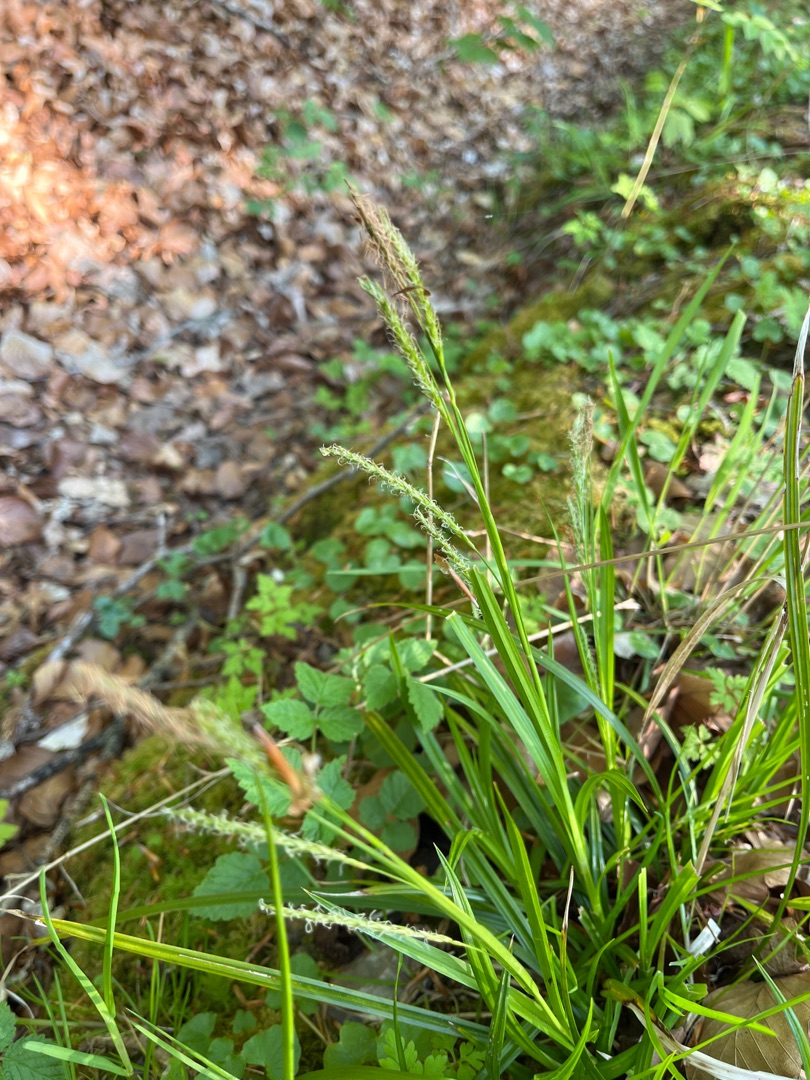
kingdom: Plantae
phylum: Tracheophyta
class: Liliopsida
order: Poales
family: Cyperaceae
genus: Carex
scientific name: Carex sylvatica
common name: Skov-star
